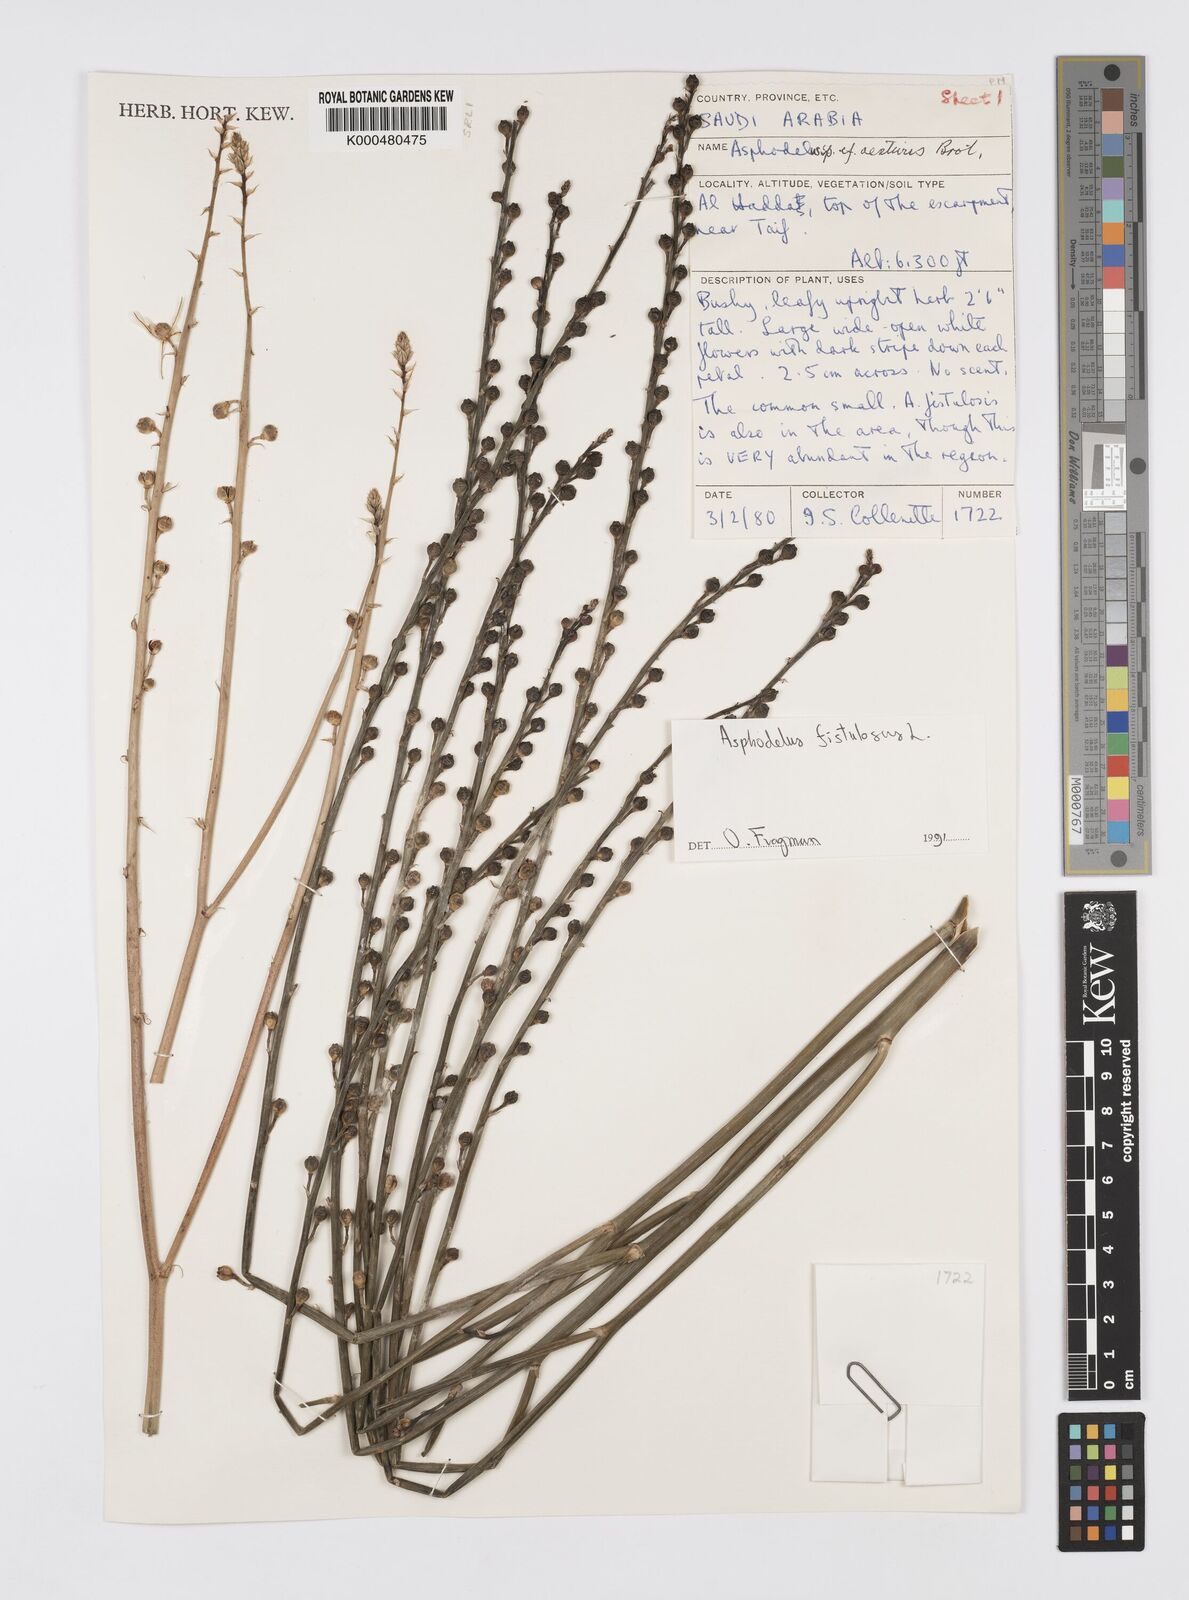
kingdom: Plantae
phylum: Tracheophyta
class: Liliopsida
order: Asparagales
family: Asphodelaceae
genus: Asphodelus
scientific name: Asphodelus fistulosus
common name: Onionweed
